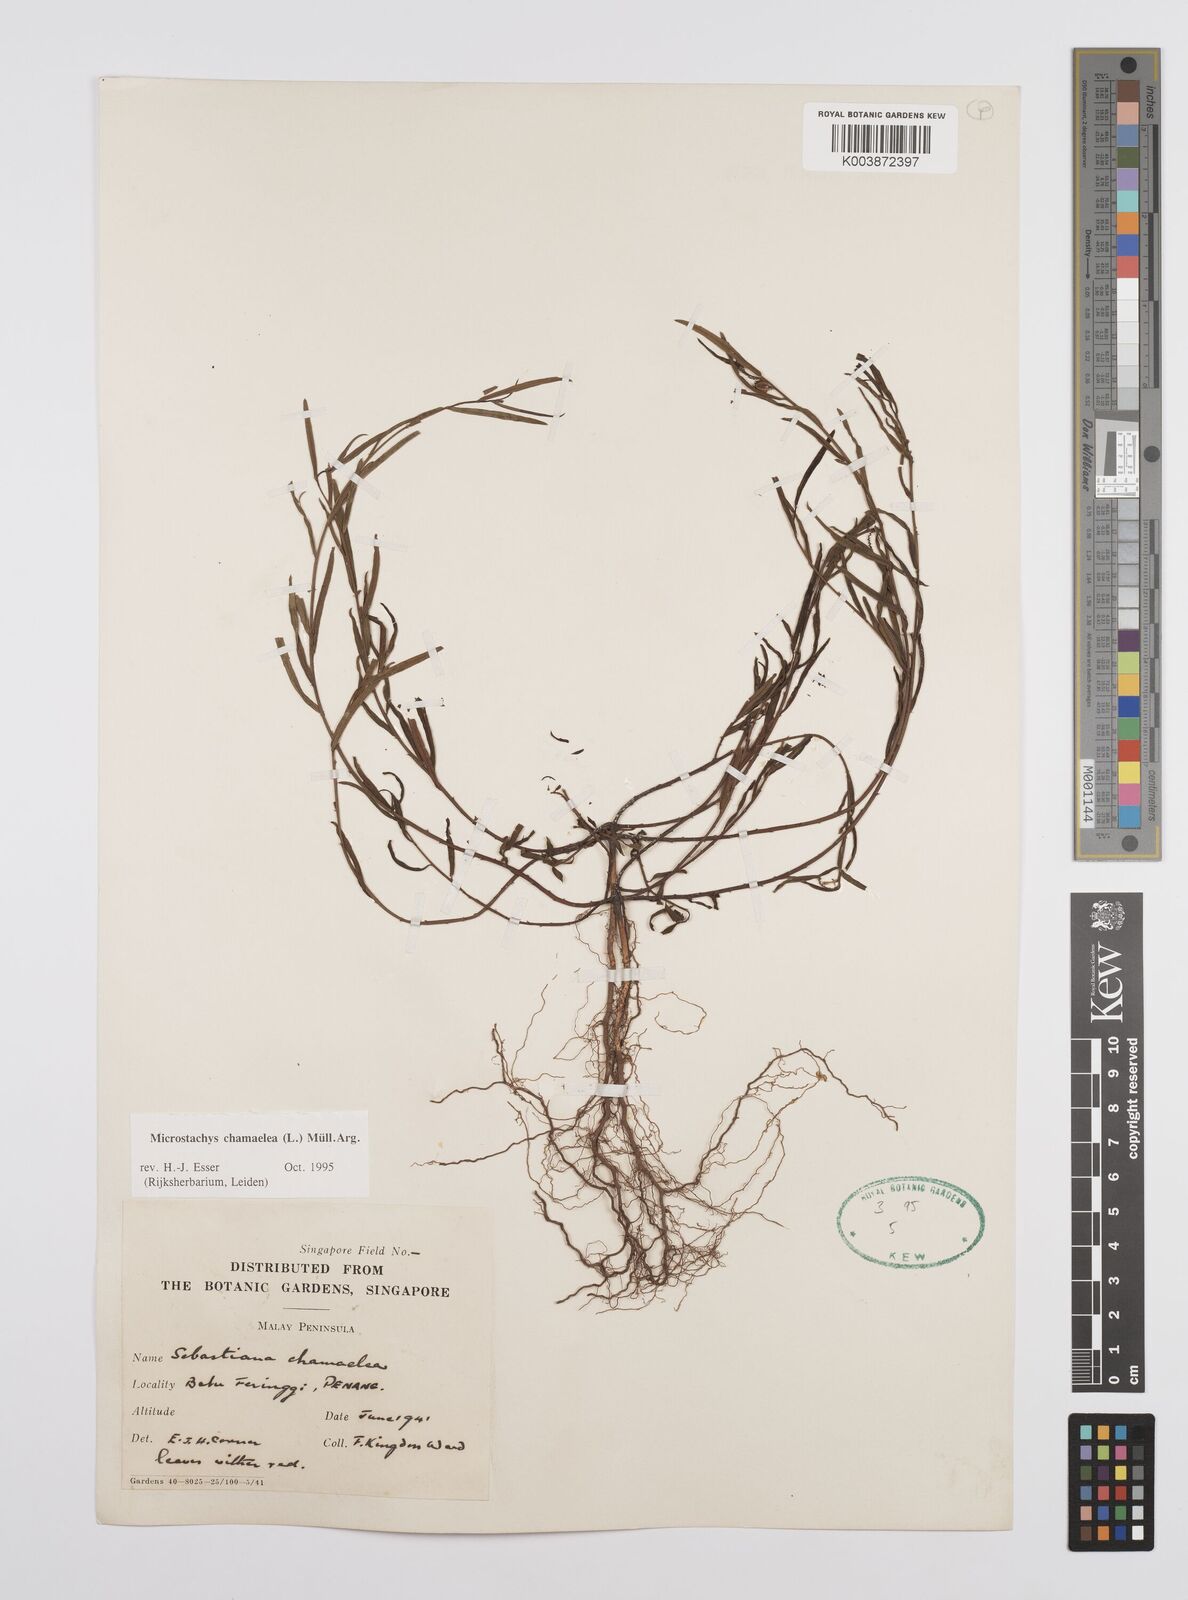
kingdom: Plantae
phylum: Tracheophyta
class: Magnoliopsida
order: Malpighiales
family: Euphorbiaceae
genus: Microstachys
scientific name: Microstachys chamaelea
